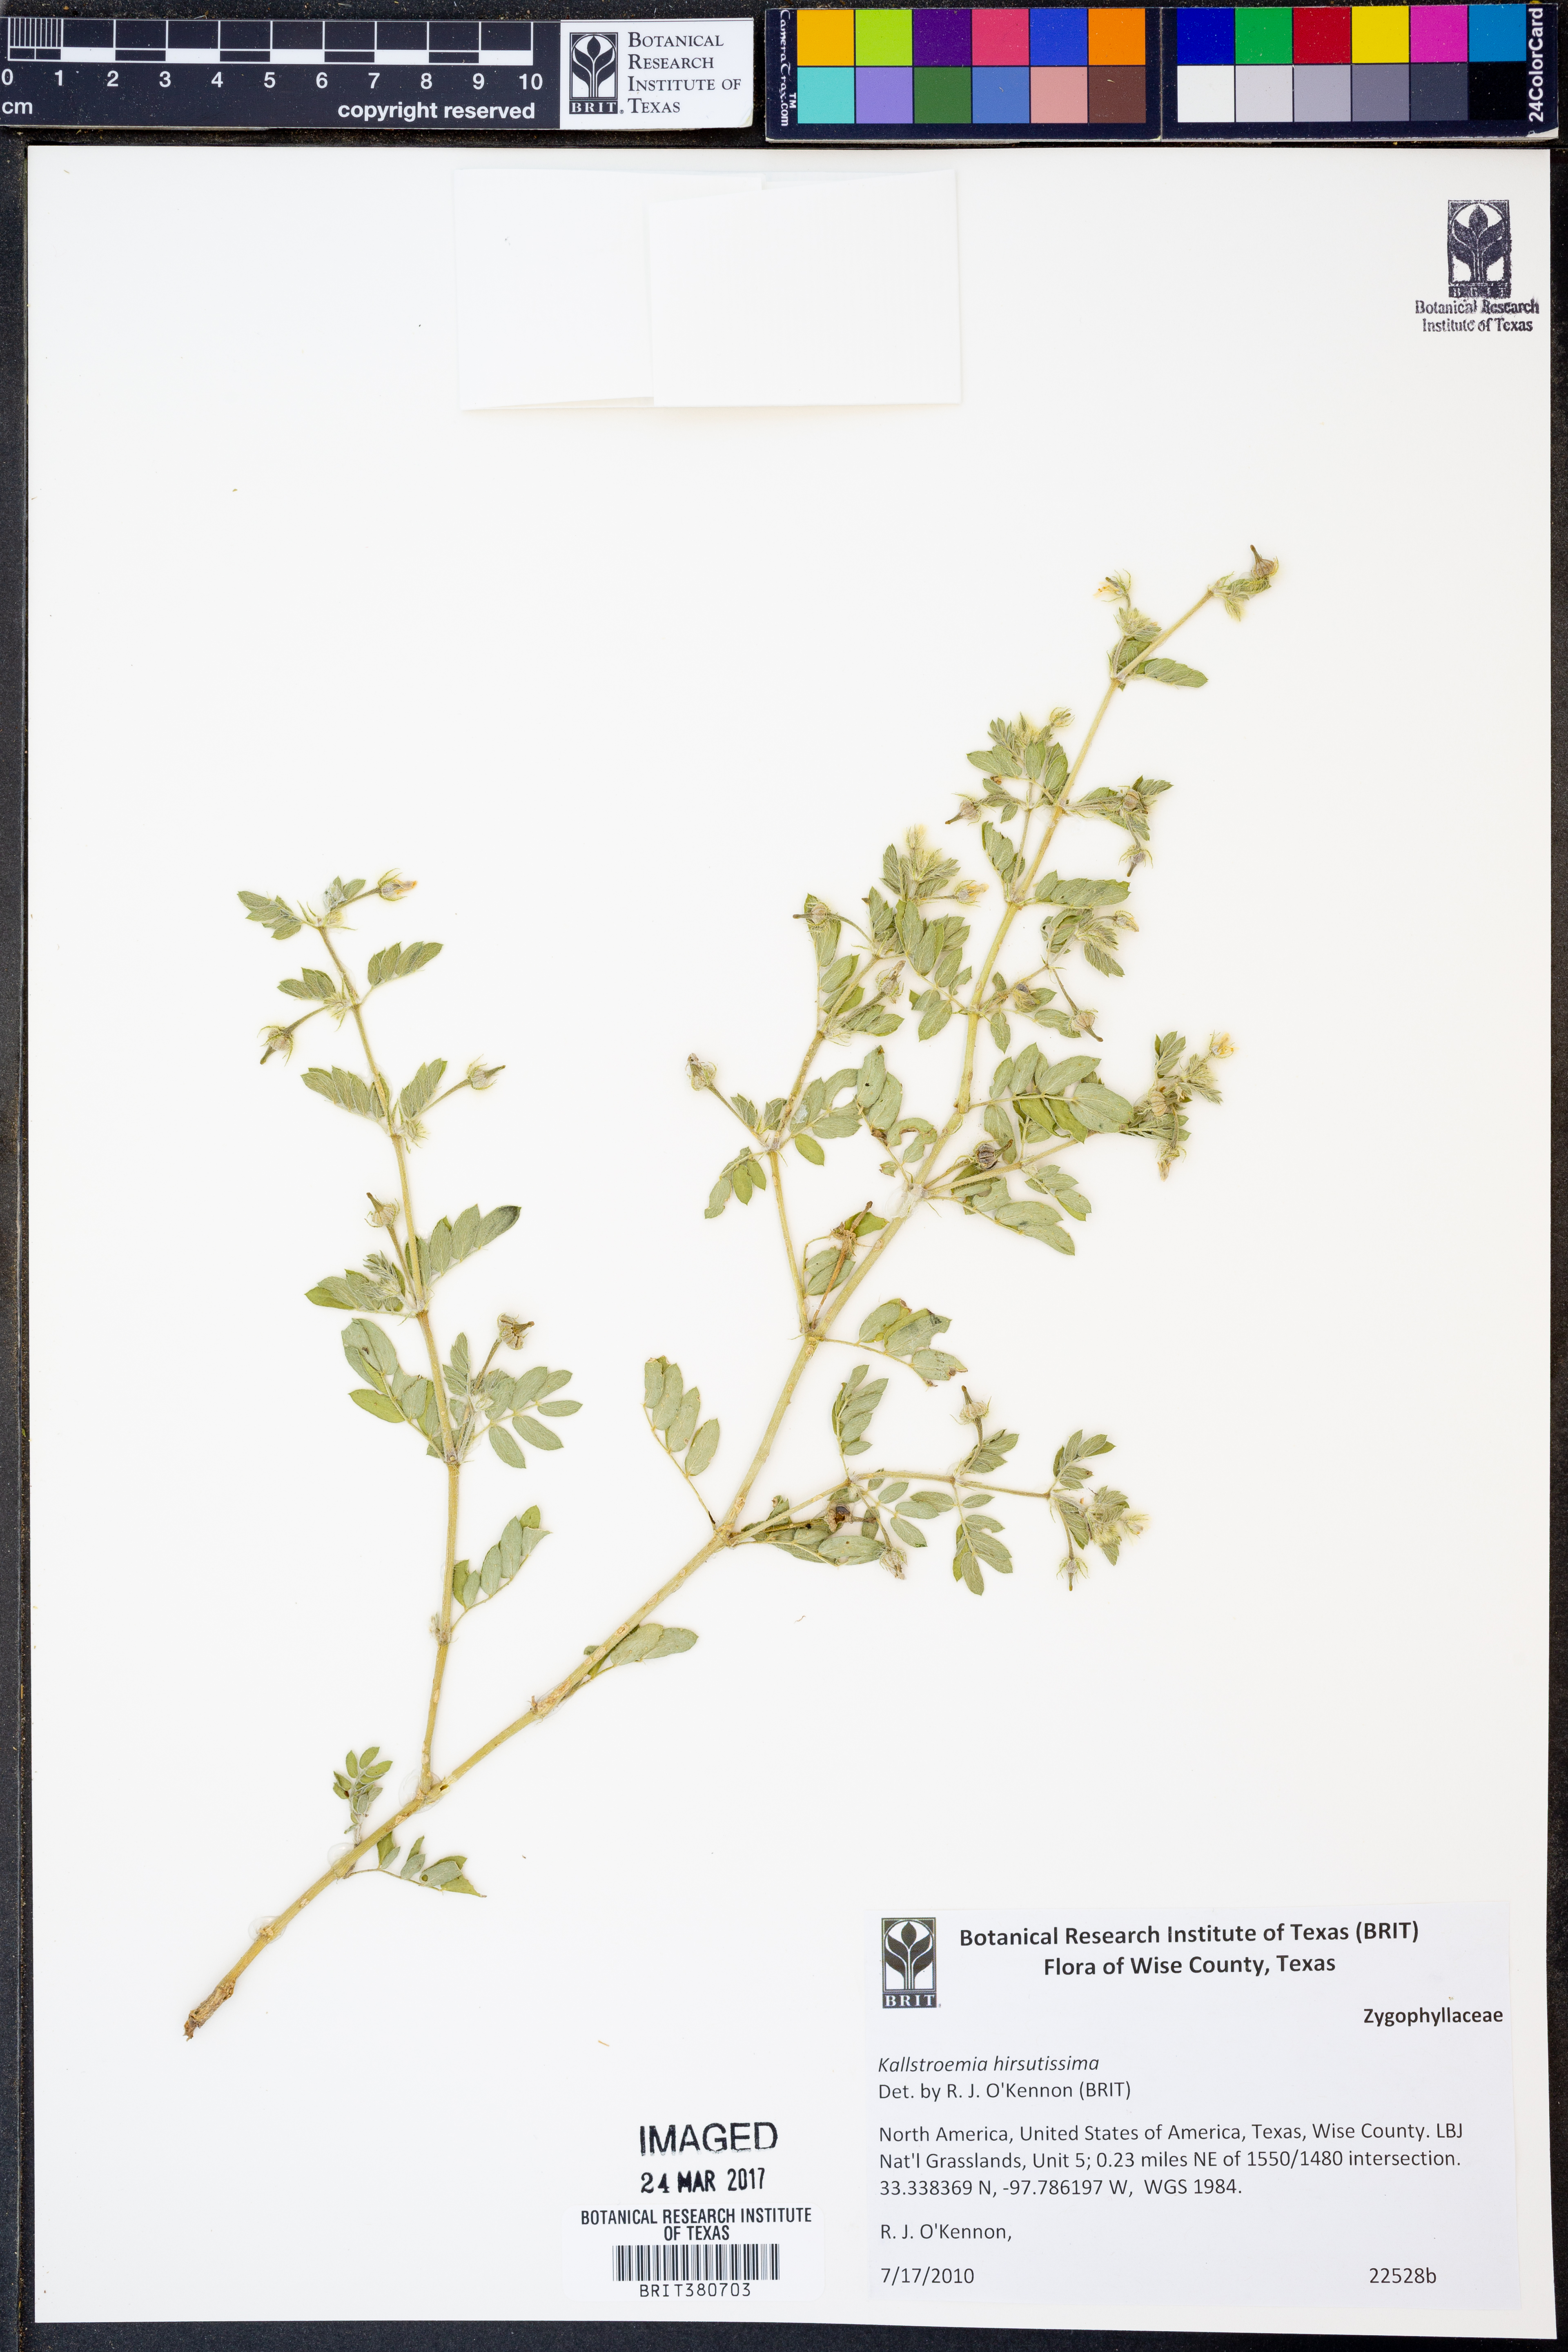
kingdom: Plantae
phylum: Tracheophyta
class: Magnoliopsida
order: Zygophyllales
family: Zygophyllaceae
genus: Kallstroemia
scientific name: Kallstroemia hirsutissima
